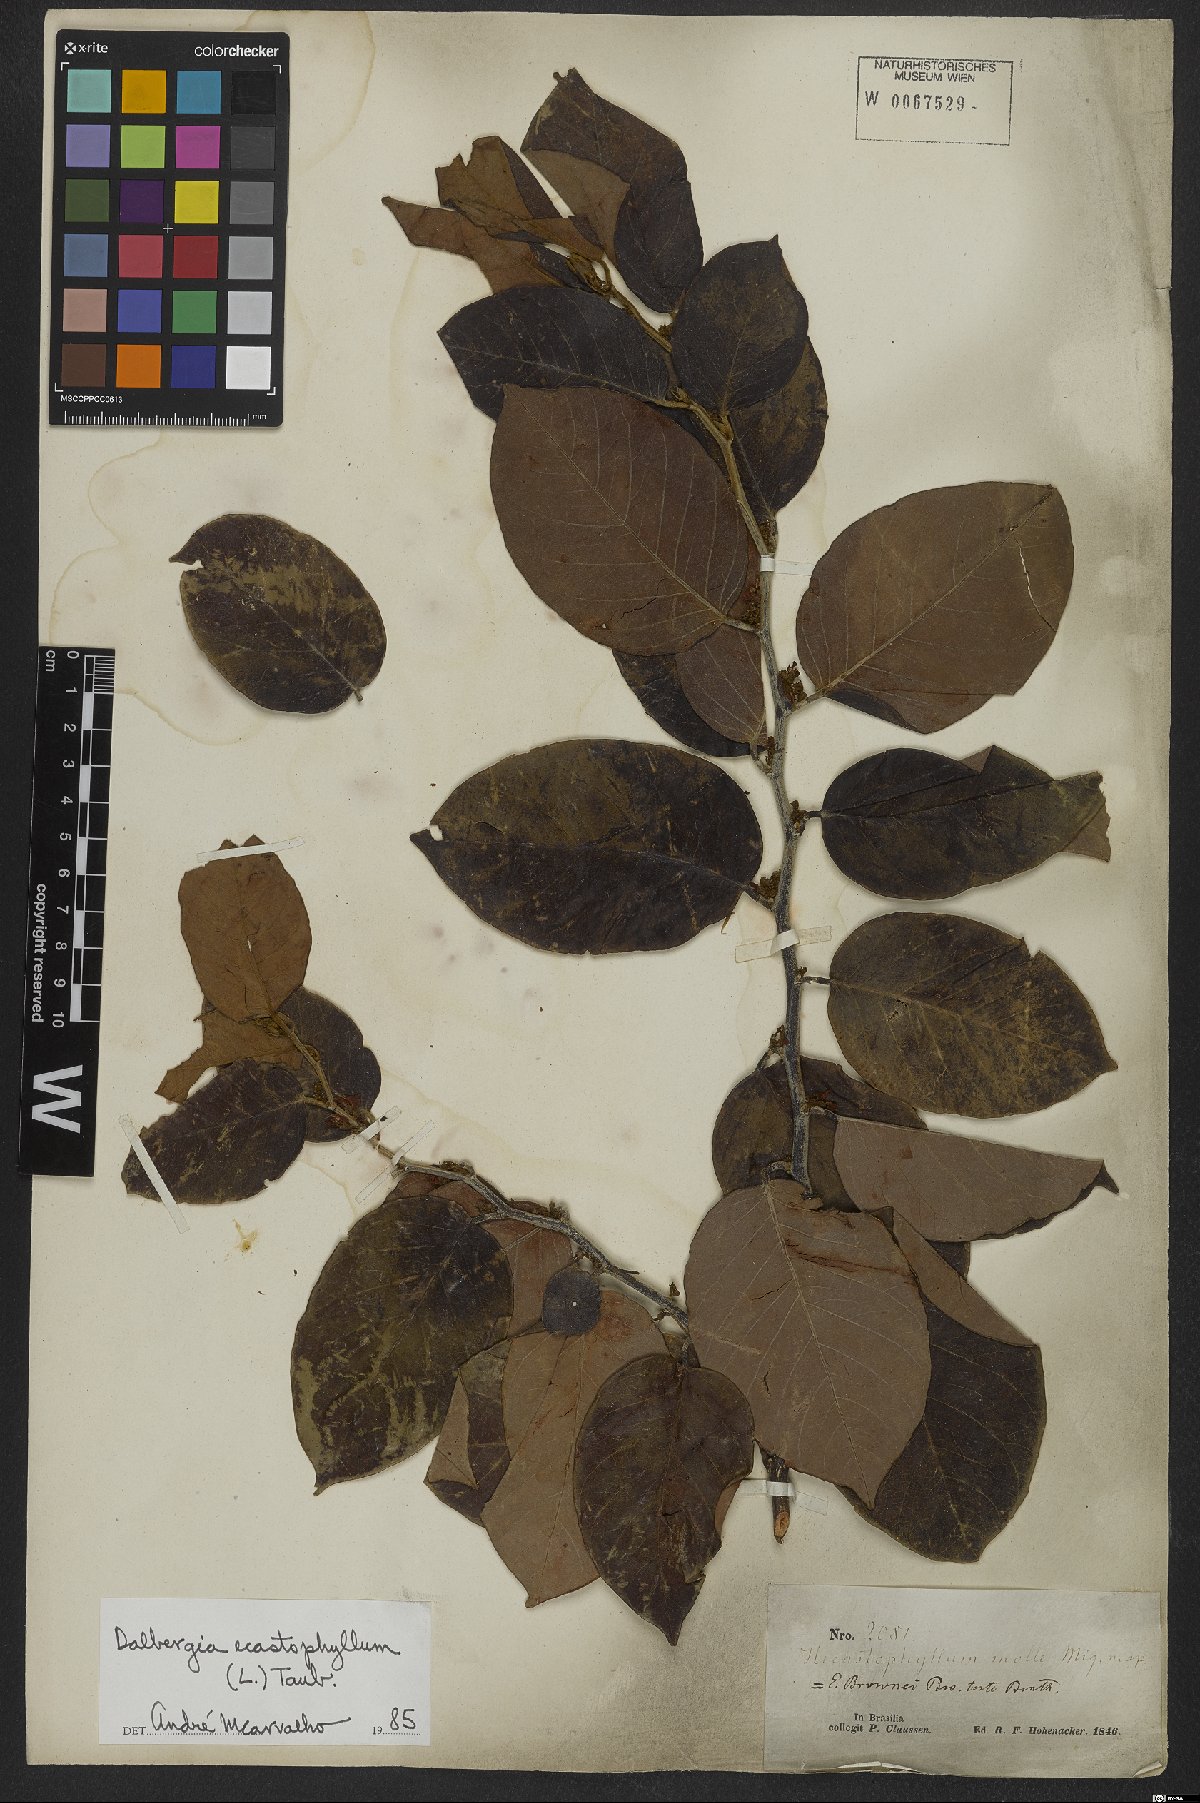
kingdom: Plantae
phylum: Tracheophyta
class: Magnoliopsida
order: Fabales
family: Fabaceae
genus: Dalbergia
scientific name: Dalbergia ecastaphyllum
